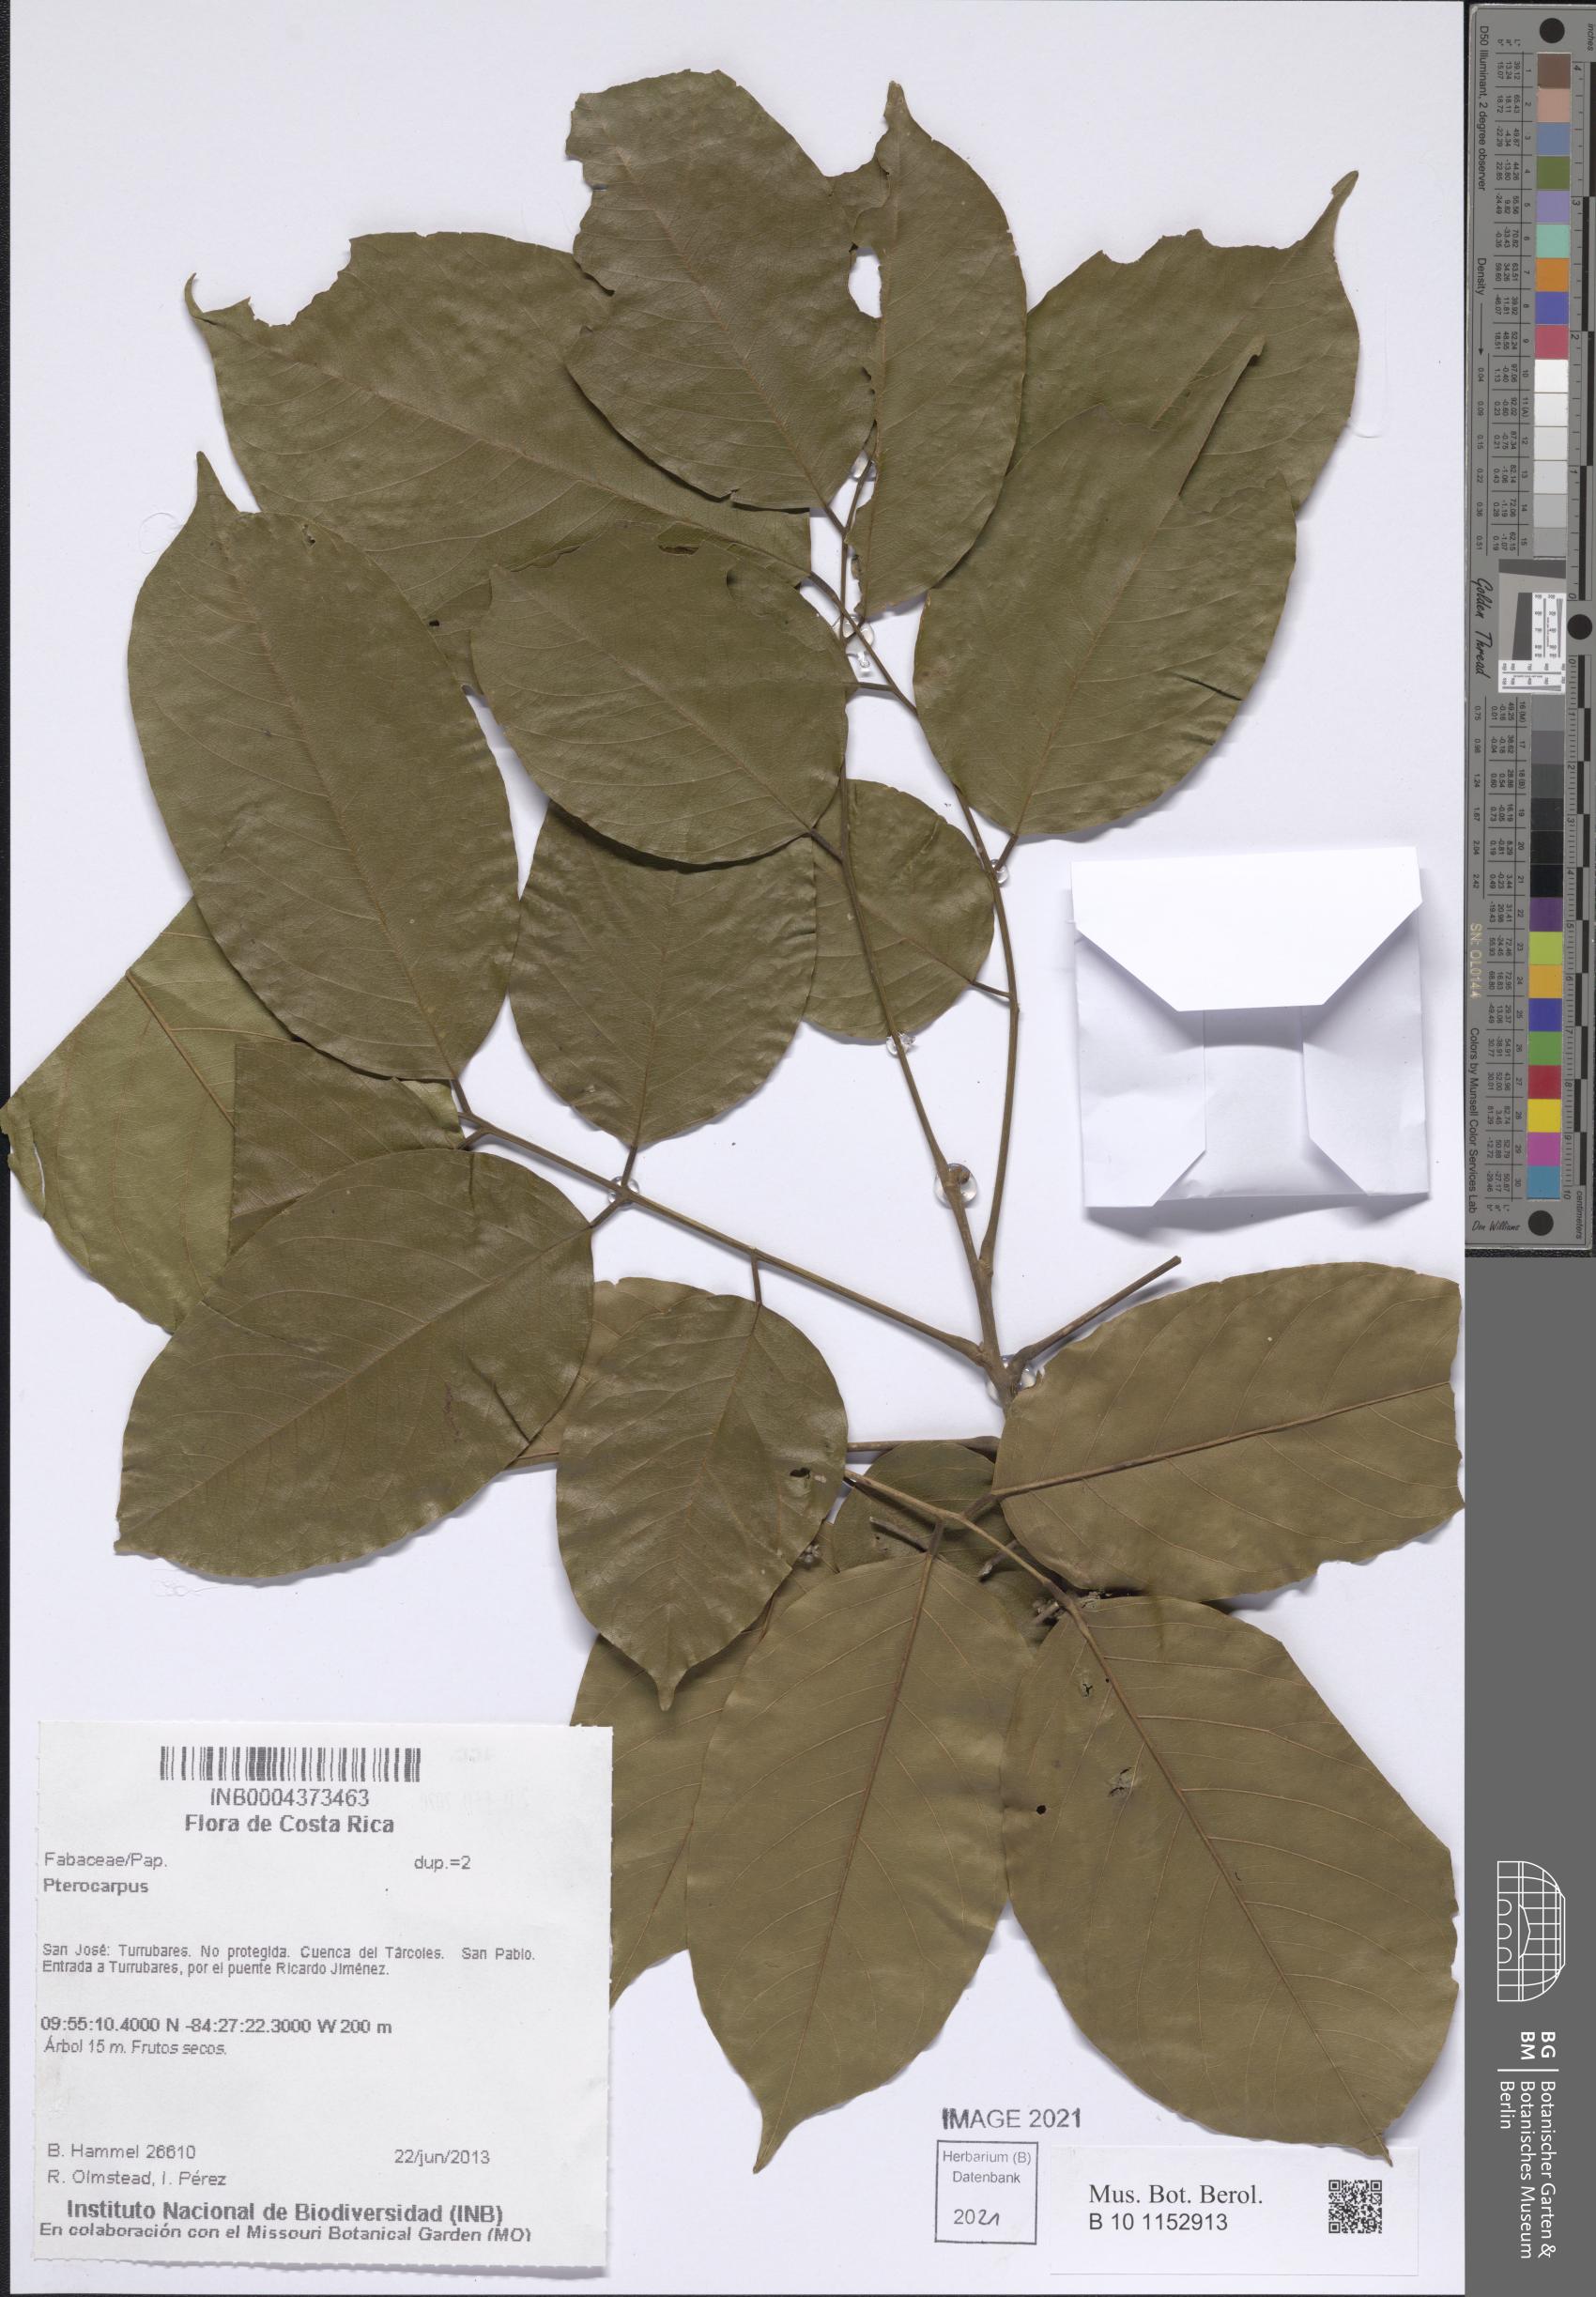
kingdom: Plantae
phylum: Tracheophyta
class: Magnoliopsida
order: Fabales
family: Fabaceae
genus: Pterocarpus
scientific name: Pterocarpus
